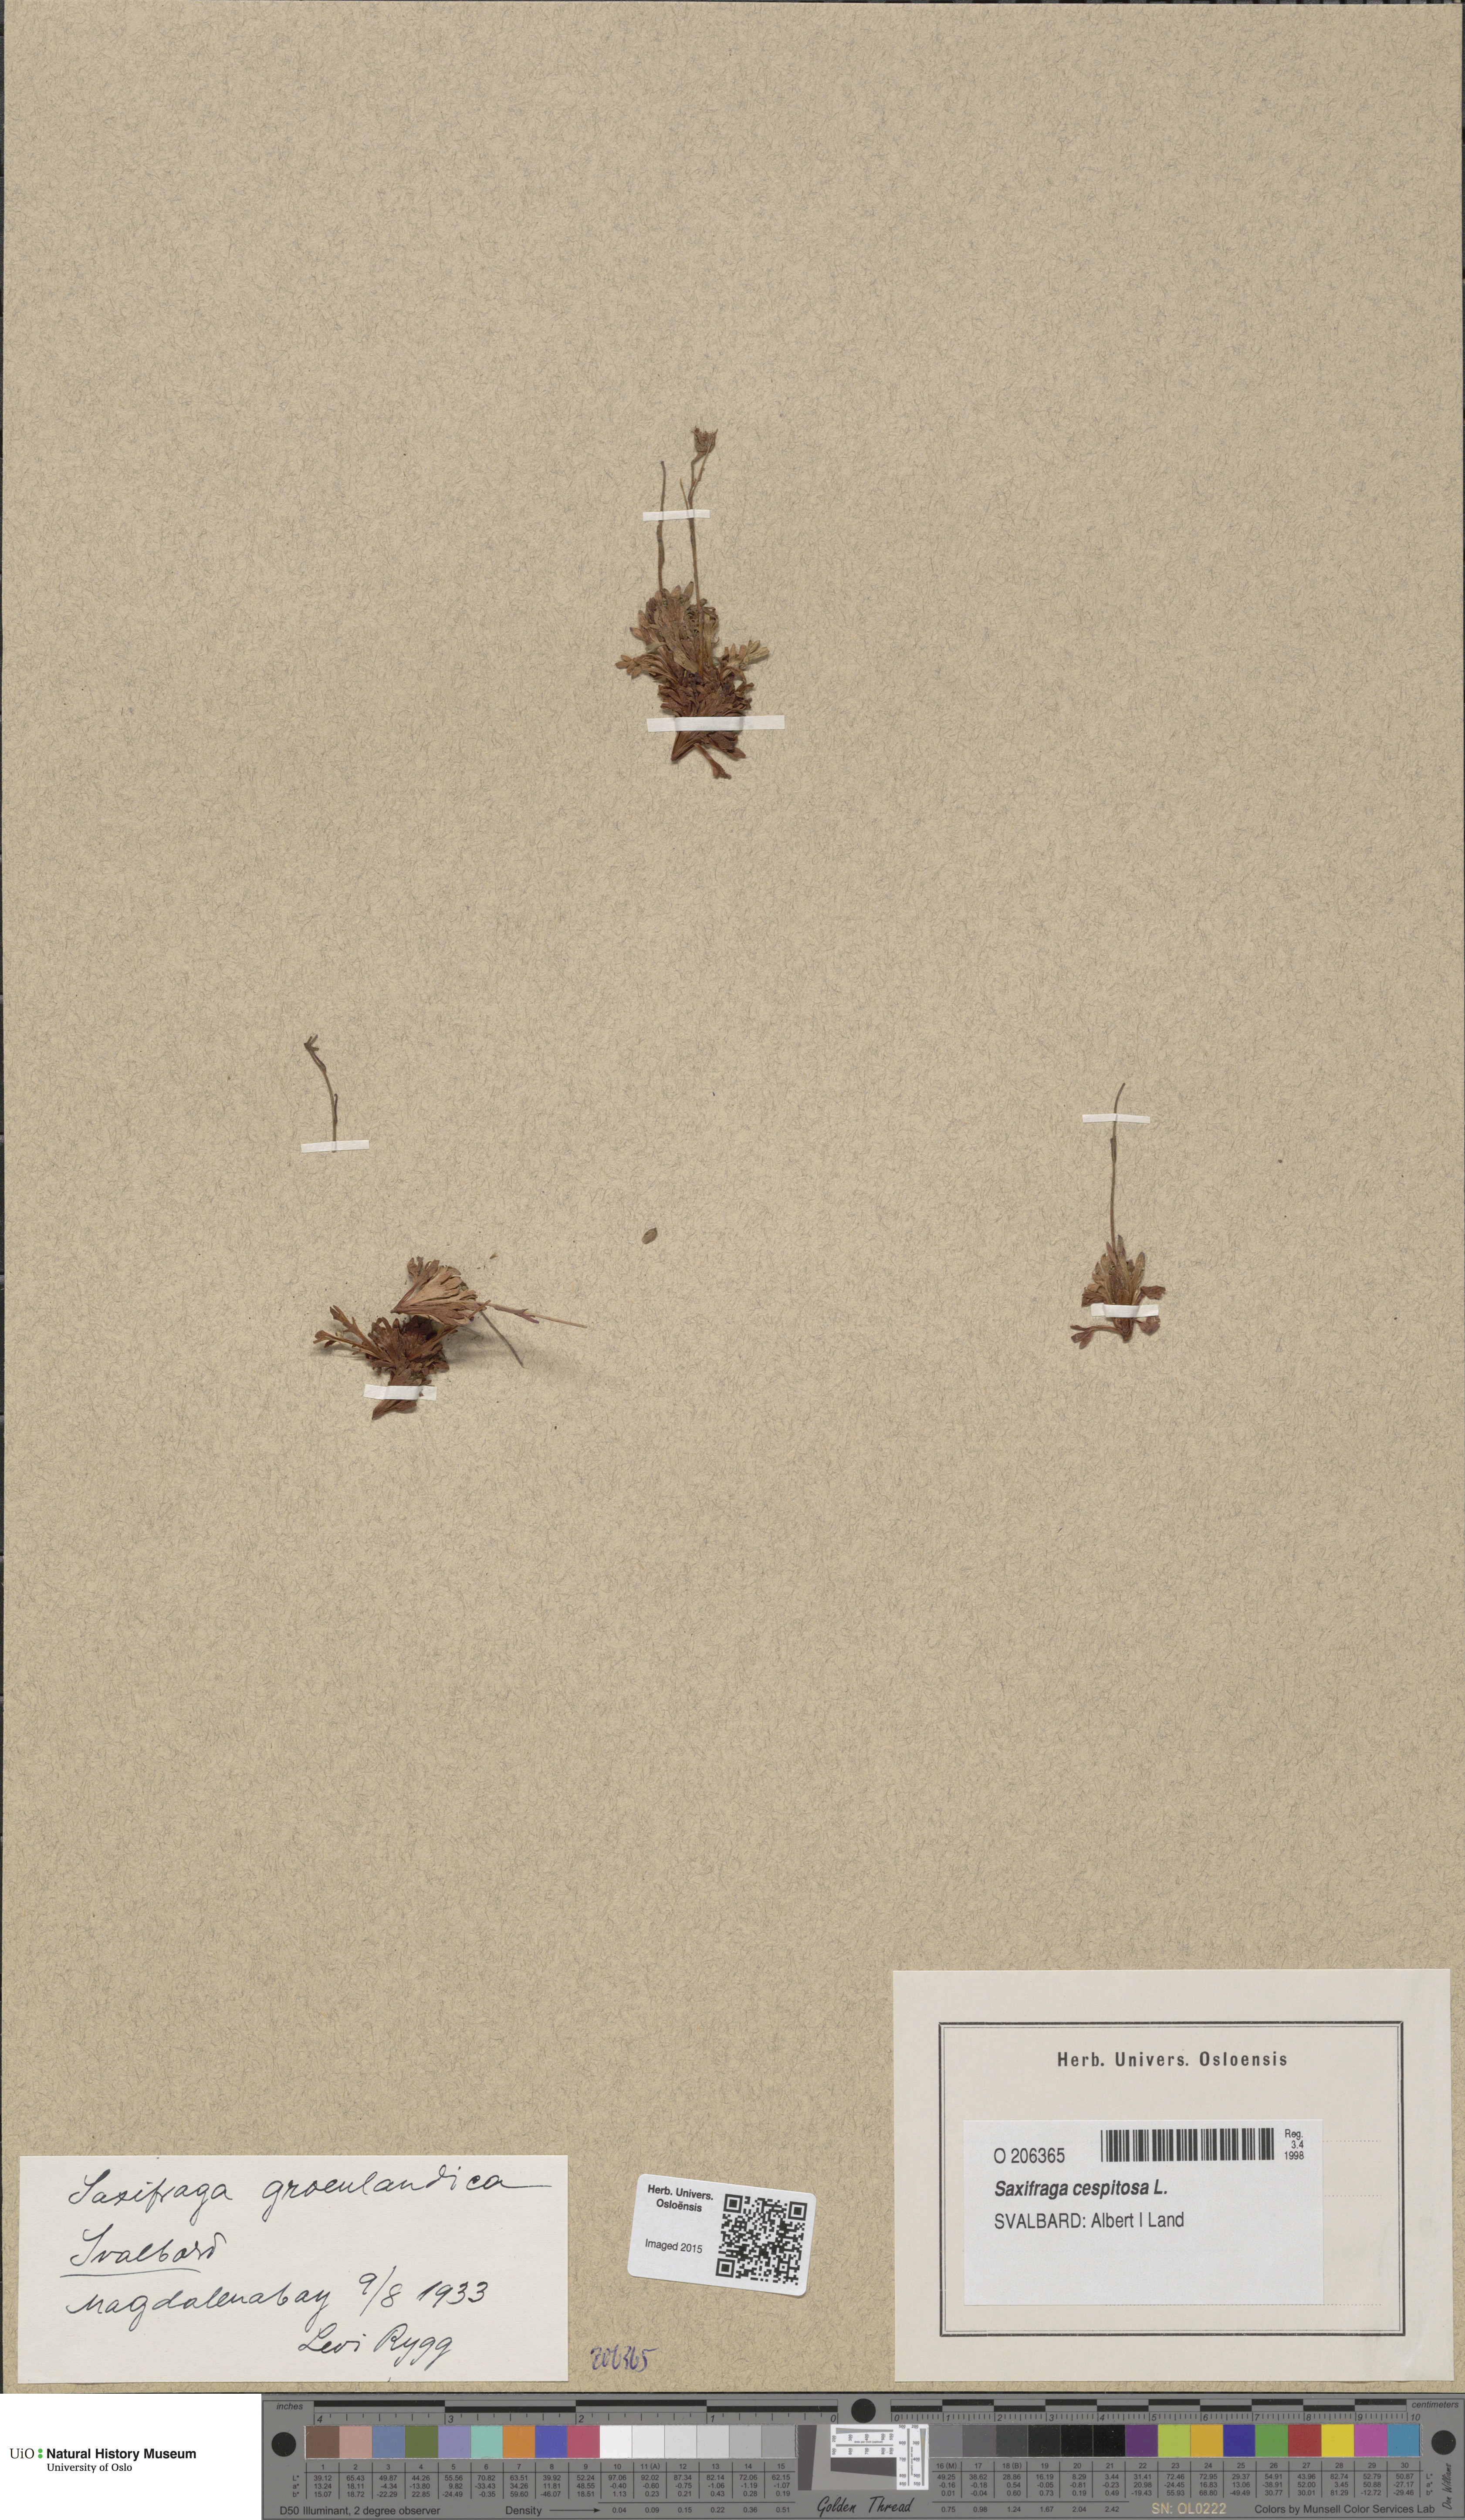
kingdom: Plantae
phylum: Tracheophyta
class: Magnoliopsida
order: Saxifragales
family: Saxifragaceae
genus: Saxifraga
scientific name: Saxifraga cespitosa
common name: Tufted saxifrage
